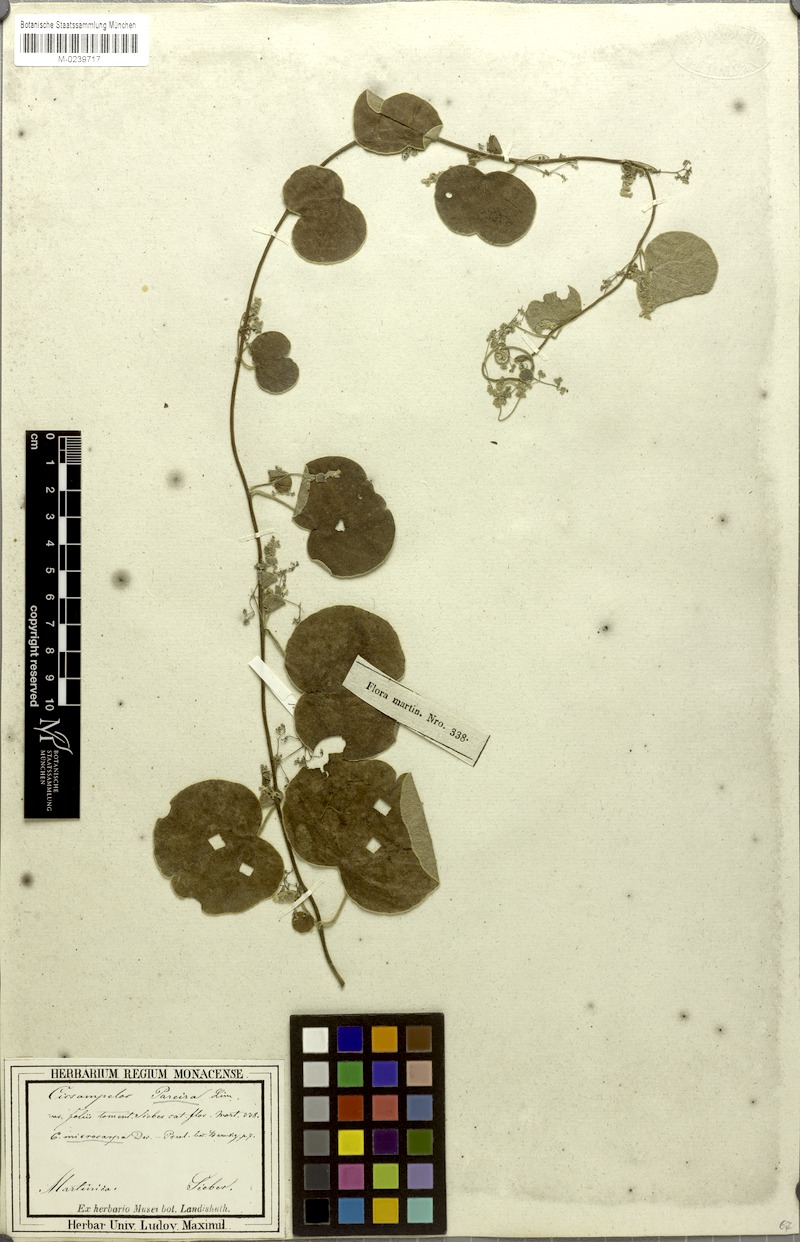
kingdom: Plantae
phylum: Tracheophyta
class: Magnoliopsida
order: Ranunculales
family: Menispermaceae
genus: Cissampelos
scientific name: Cissampelos pareira
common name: Velvetleaf
